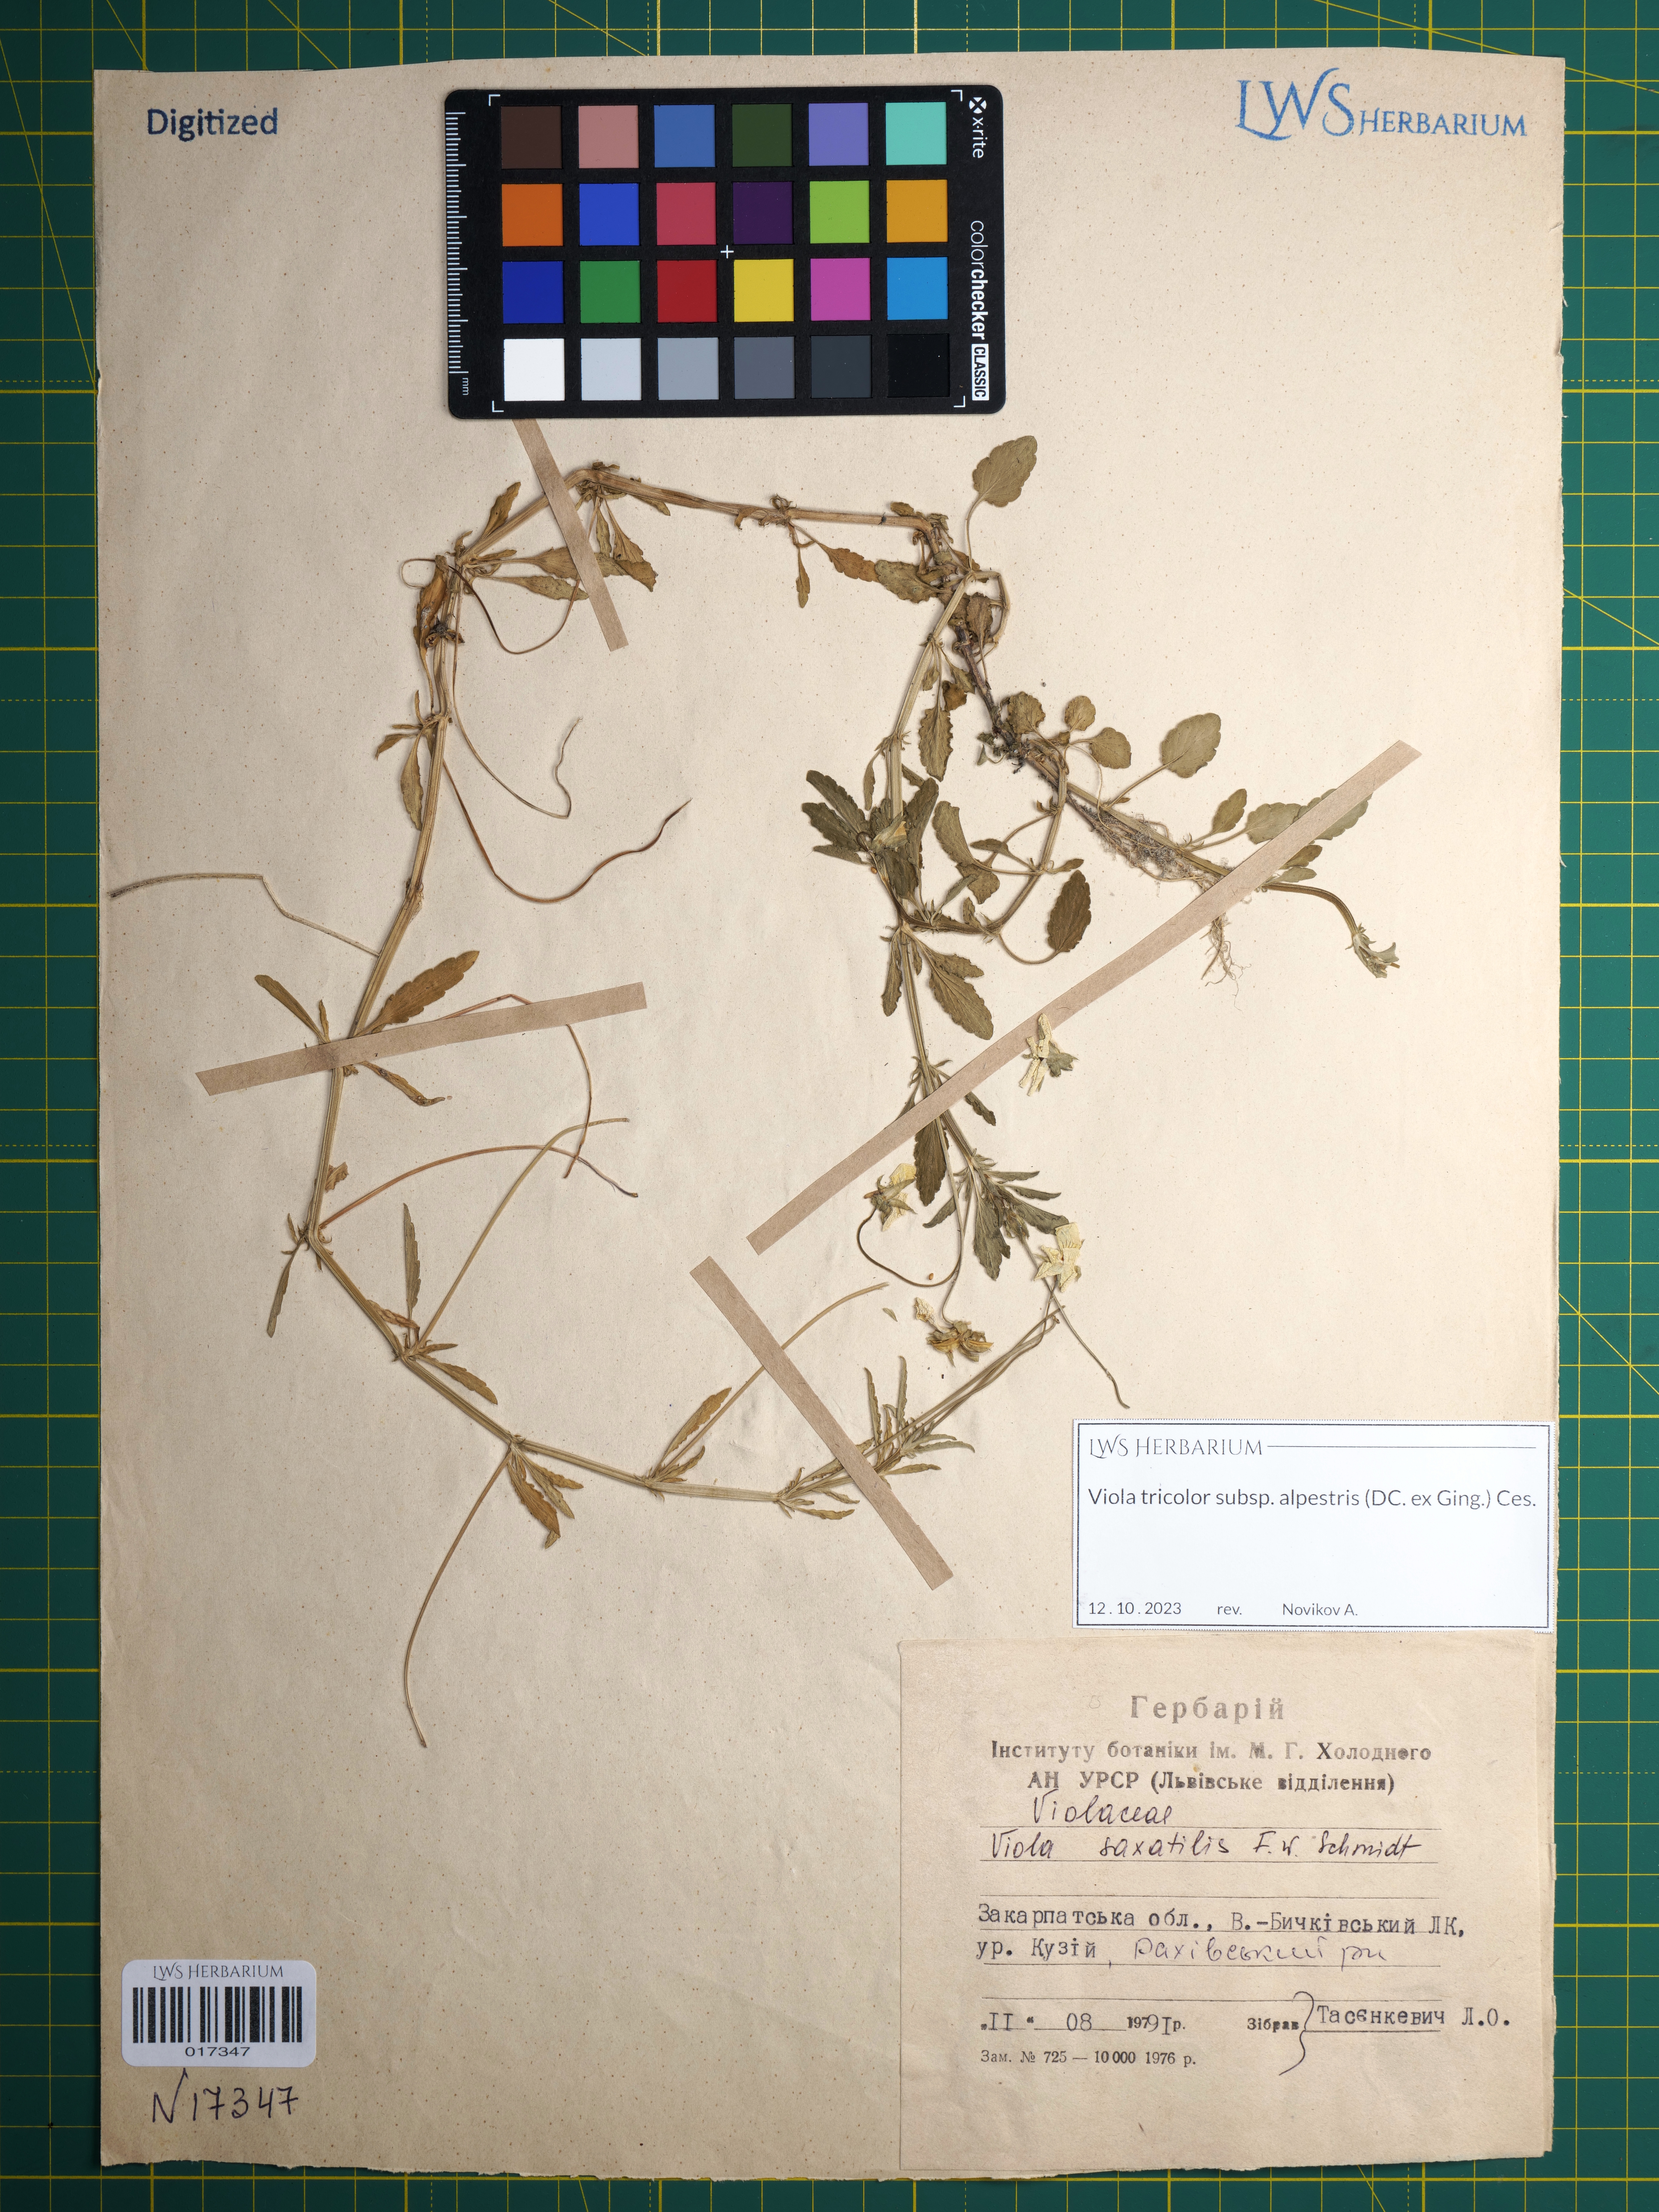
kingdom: Plantae
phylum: Tracheophyta
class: Magnoliopsida
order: Malpighiales
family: Violaceae
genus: Viola
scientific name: Viola tricolor
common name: Pansy
